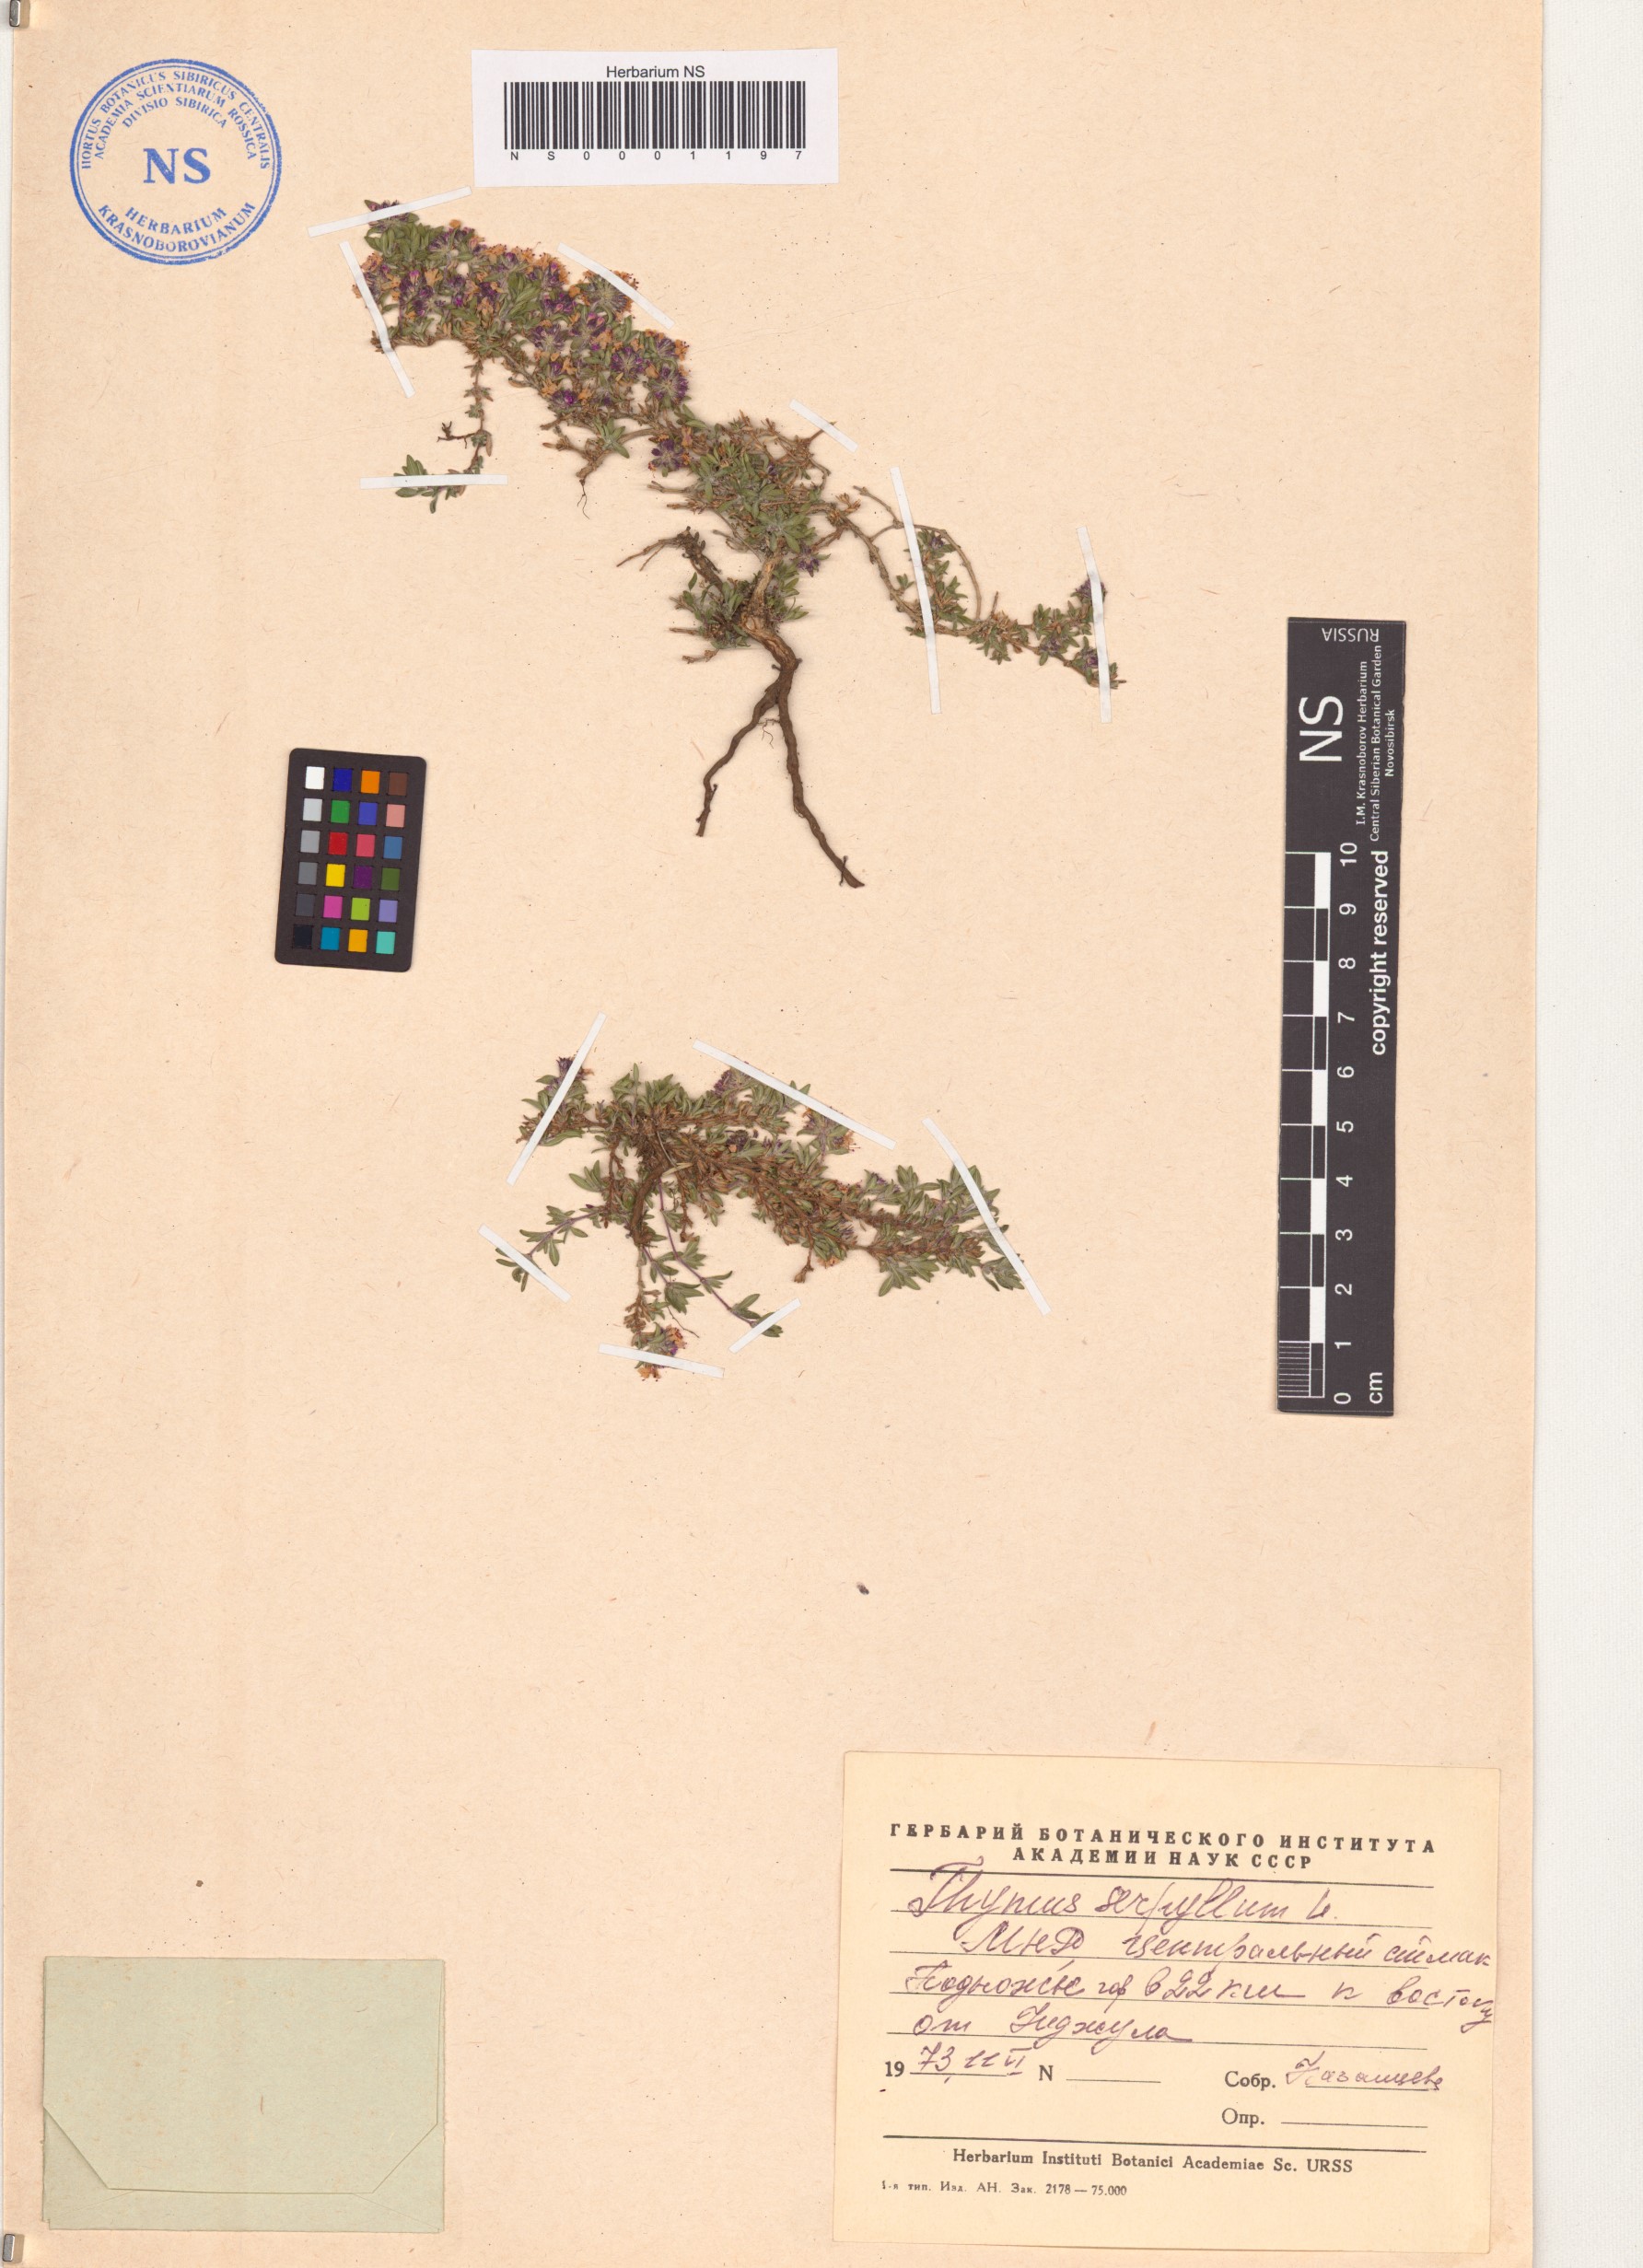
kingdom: Plantae
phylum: Tracheophyta
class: Magnoliopsida
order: Lamiales
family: Lamiaceae
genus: Thymus
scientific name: Thymus serpyllum
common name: Breckland thyme
